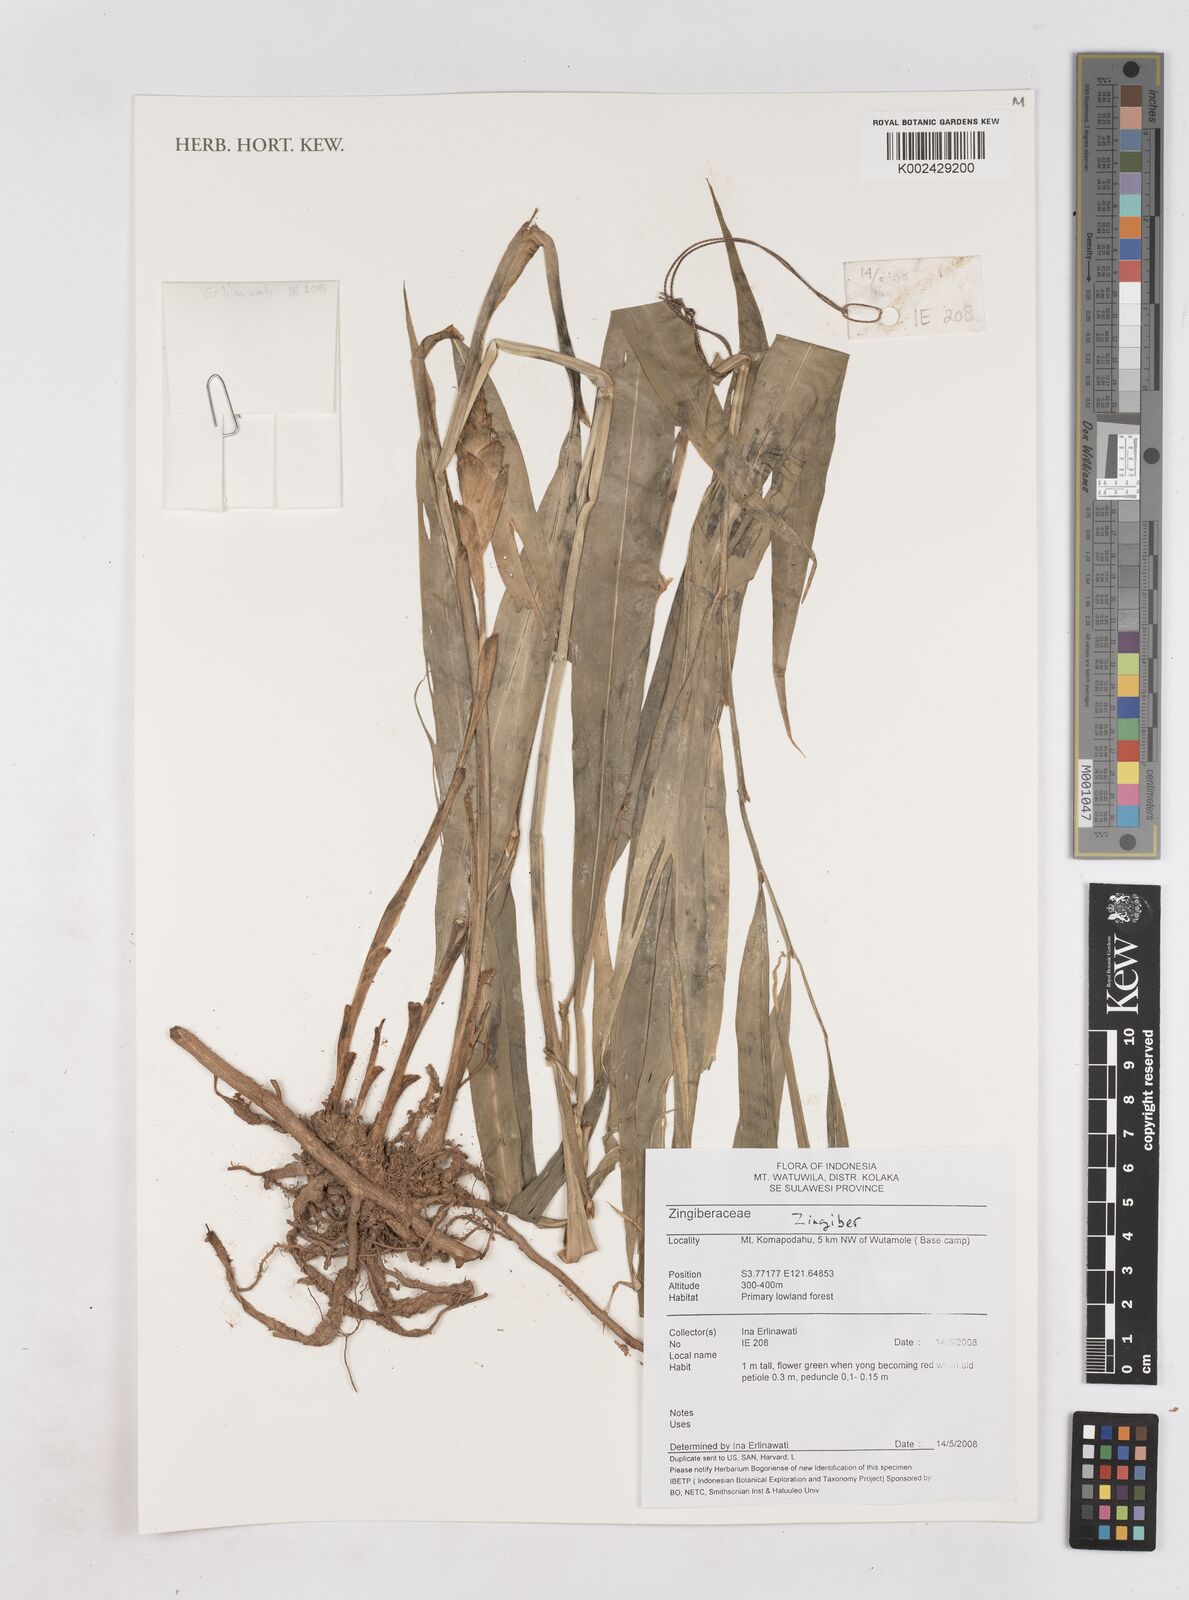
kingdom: Plantae
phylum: Tracheophyta
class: Liliopsida
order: Zingiberales
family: Zingiberaceae
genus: Zingiber
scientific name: Zingiber
